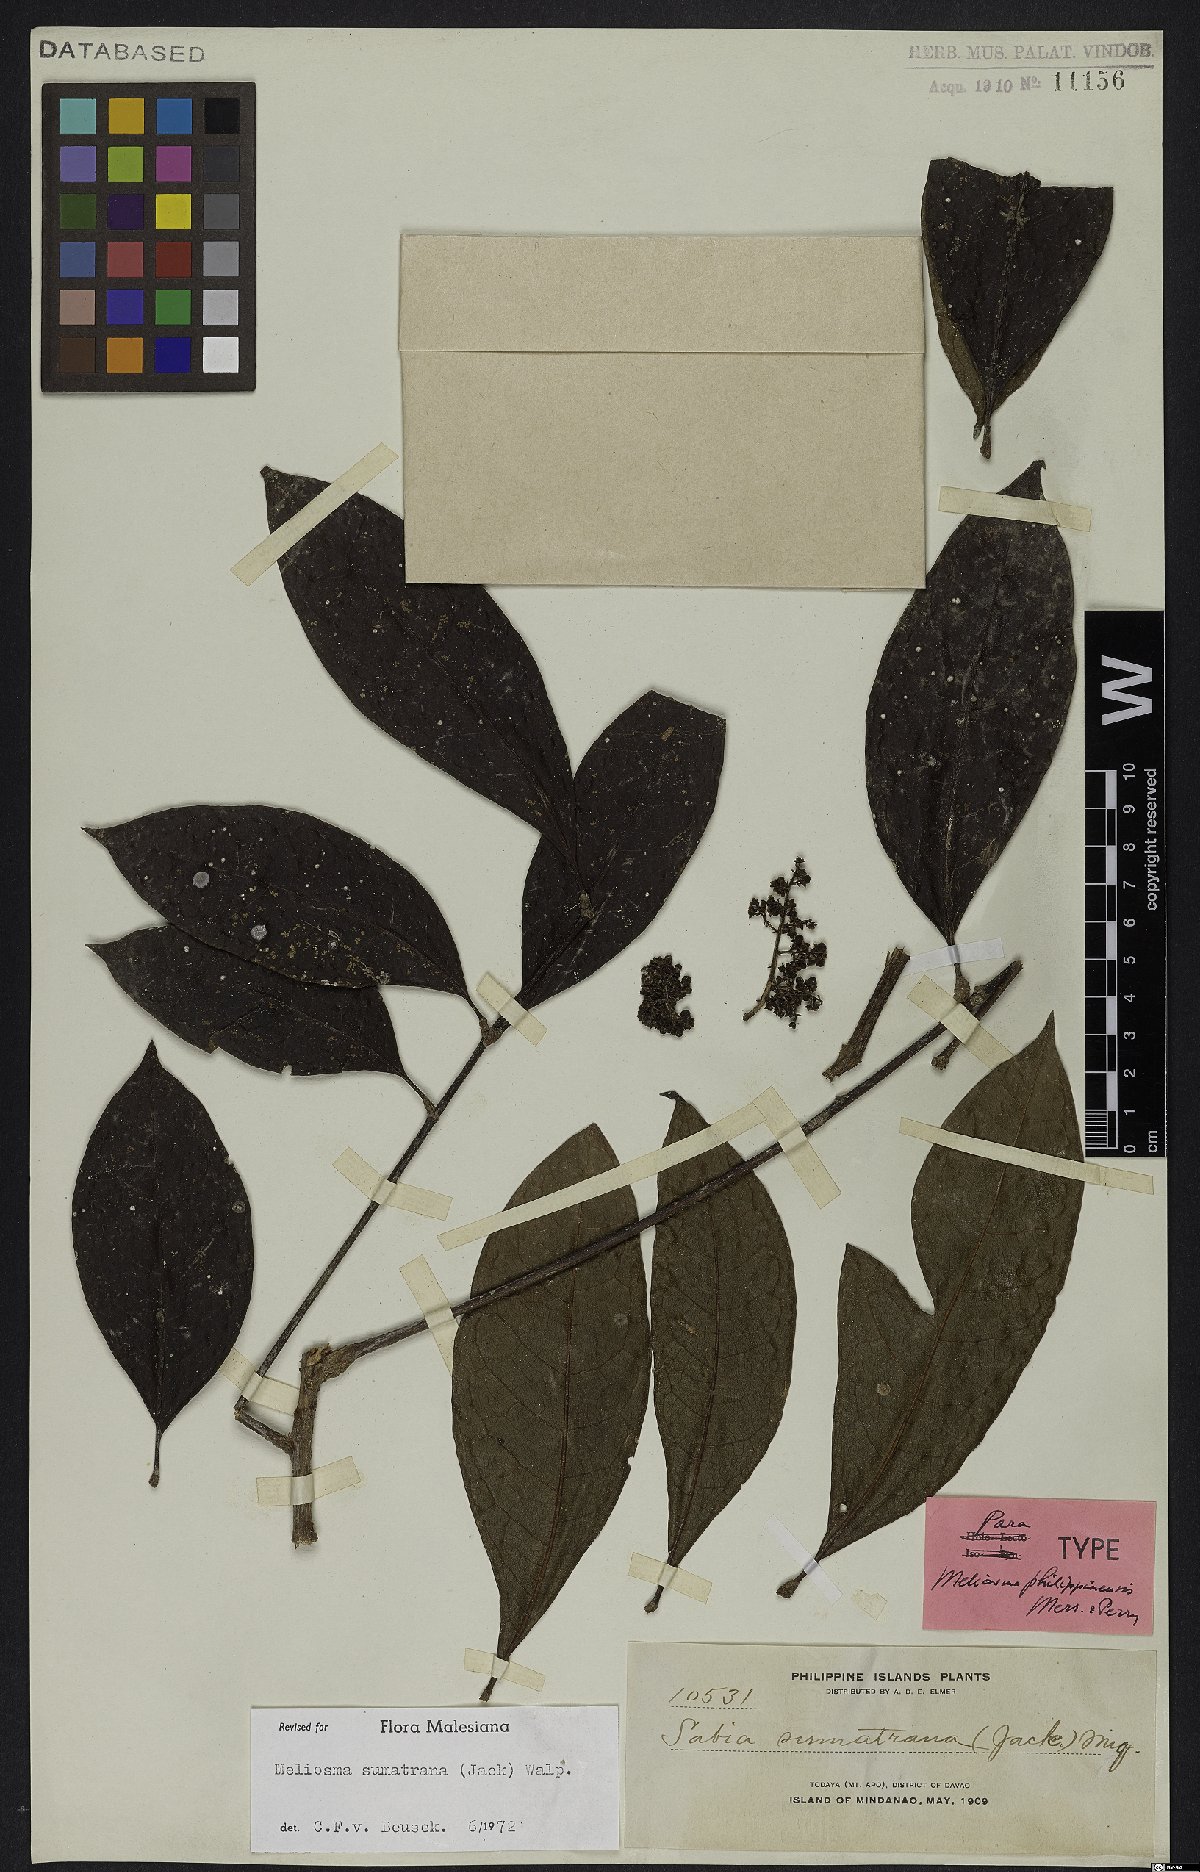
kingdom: Plantae
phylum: Tracheophyta
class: Magnoliopsida
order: Proteales
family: Sabiaceae
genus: Meliosma
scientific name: Meliosma sumatrana
